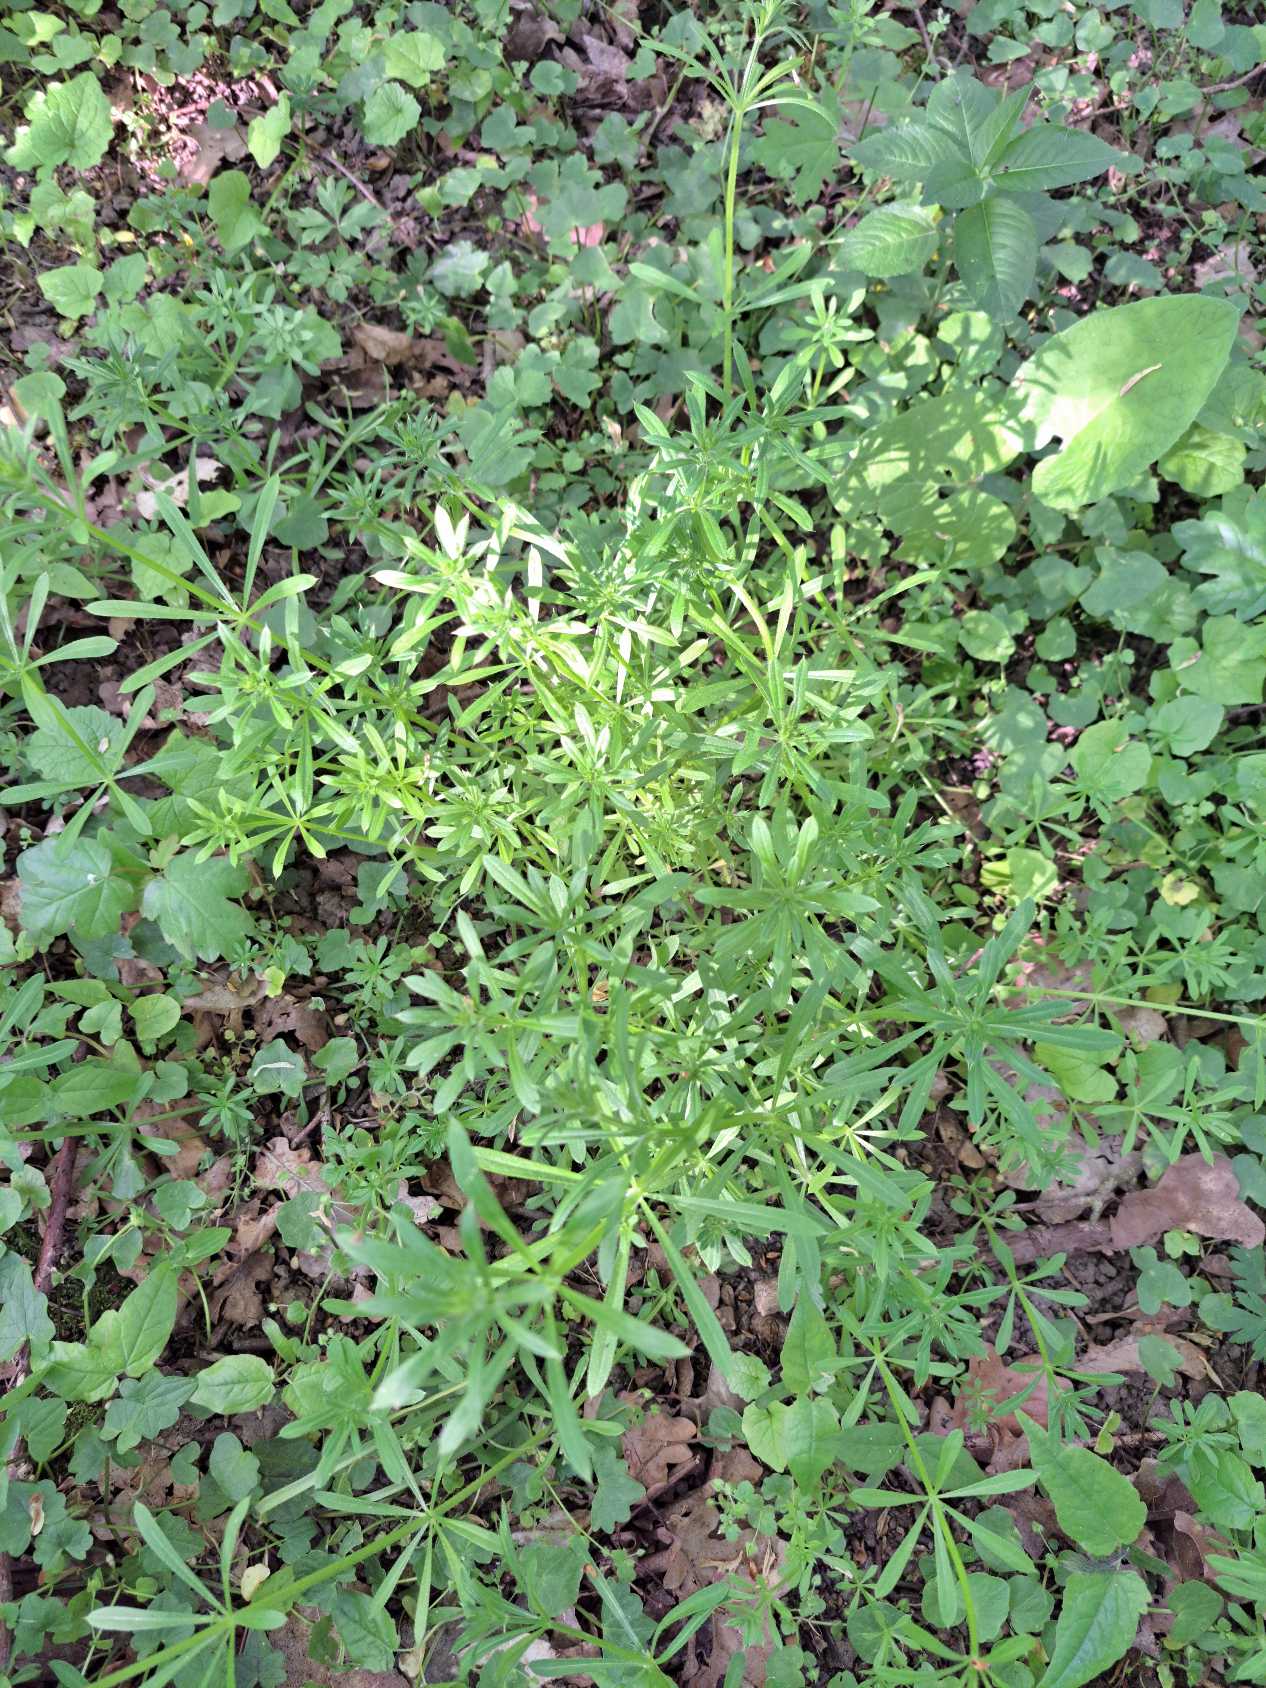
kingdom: Plantae
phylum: Tracheophyta
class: Magnoliopsida
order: Gentianales
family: Rubiaceae
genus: Galium
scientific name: Galium aparine
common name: Burre-snerre
